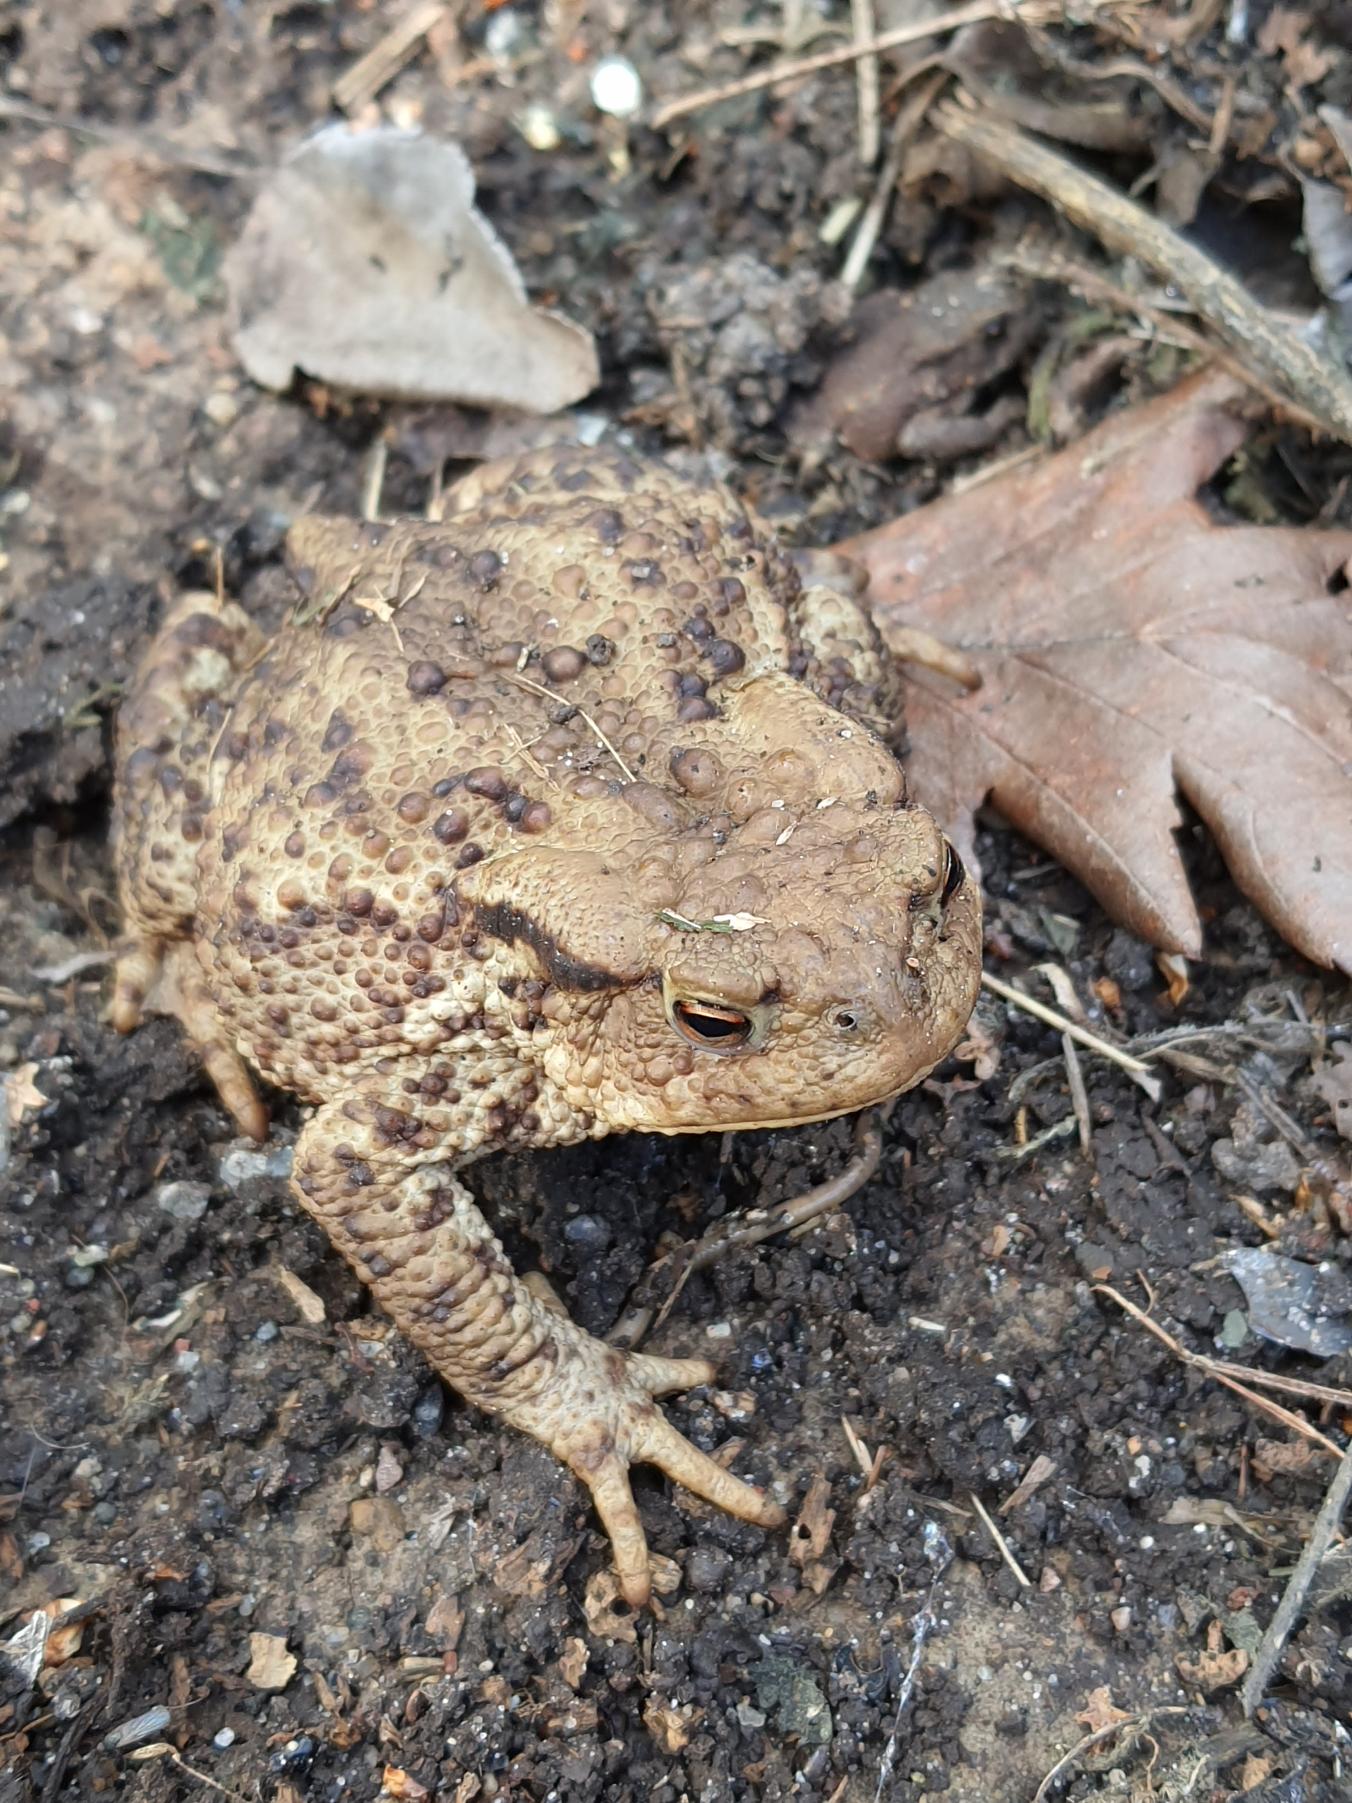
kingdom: Animalia
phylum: Chordata
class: Amphibia
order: Anura
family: Bufonidae
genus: Bufo
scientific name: Bufo bufo
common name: Skrubtudse
